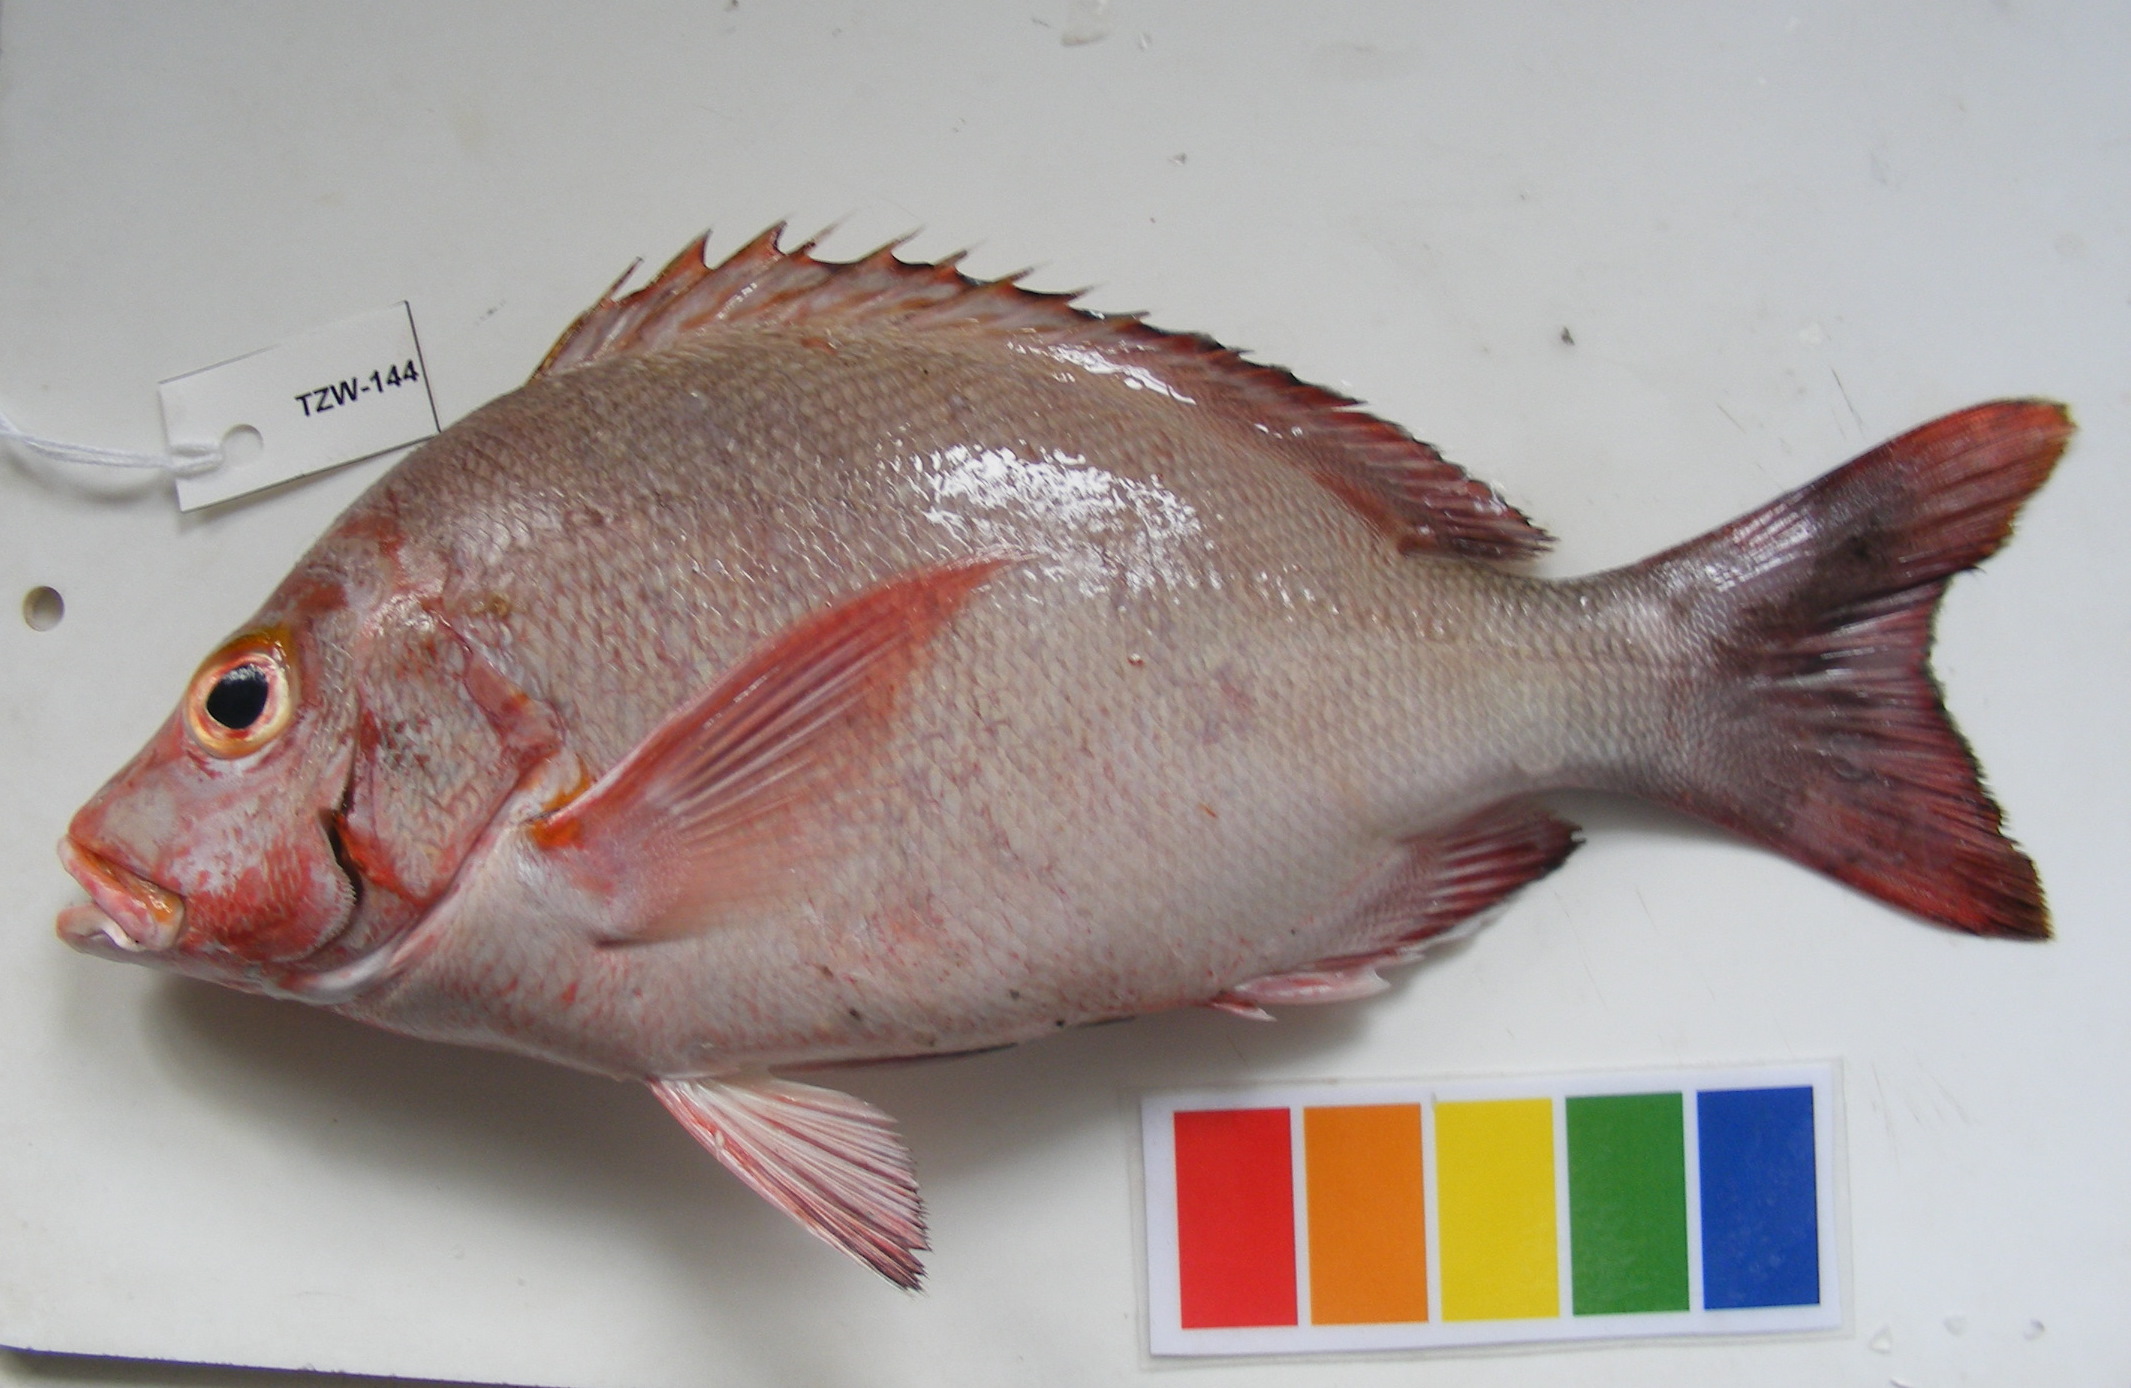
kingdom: Animalia
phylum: Chordata
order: Perciformes
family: Lutjanidae
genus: Lutjanus
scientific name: Lutjanus gibbus
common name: Humpback snapper
